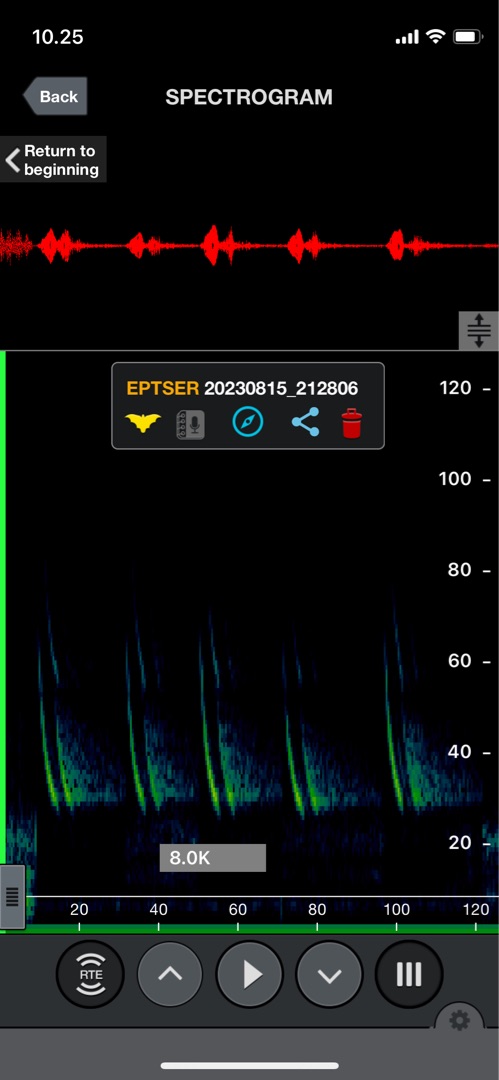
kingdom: Animalia
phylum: Chordata
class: Mammalia
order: Chiroptera
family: Vespertilionidae
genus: Eptesicus
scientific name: Eptesicus serotinus
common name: Sydflagermus
